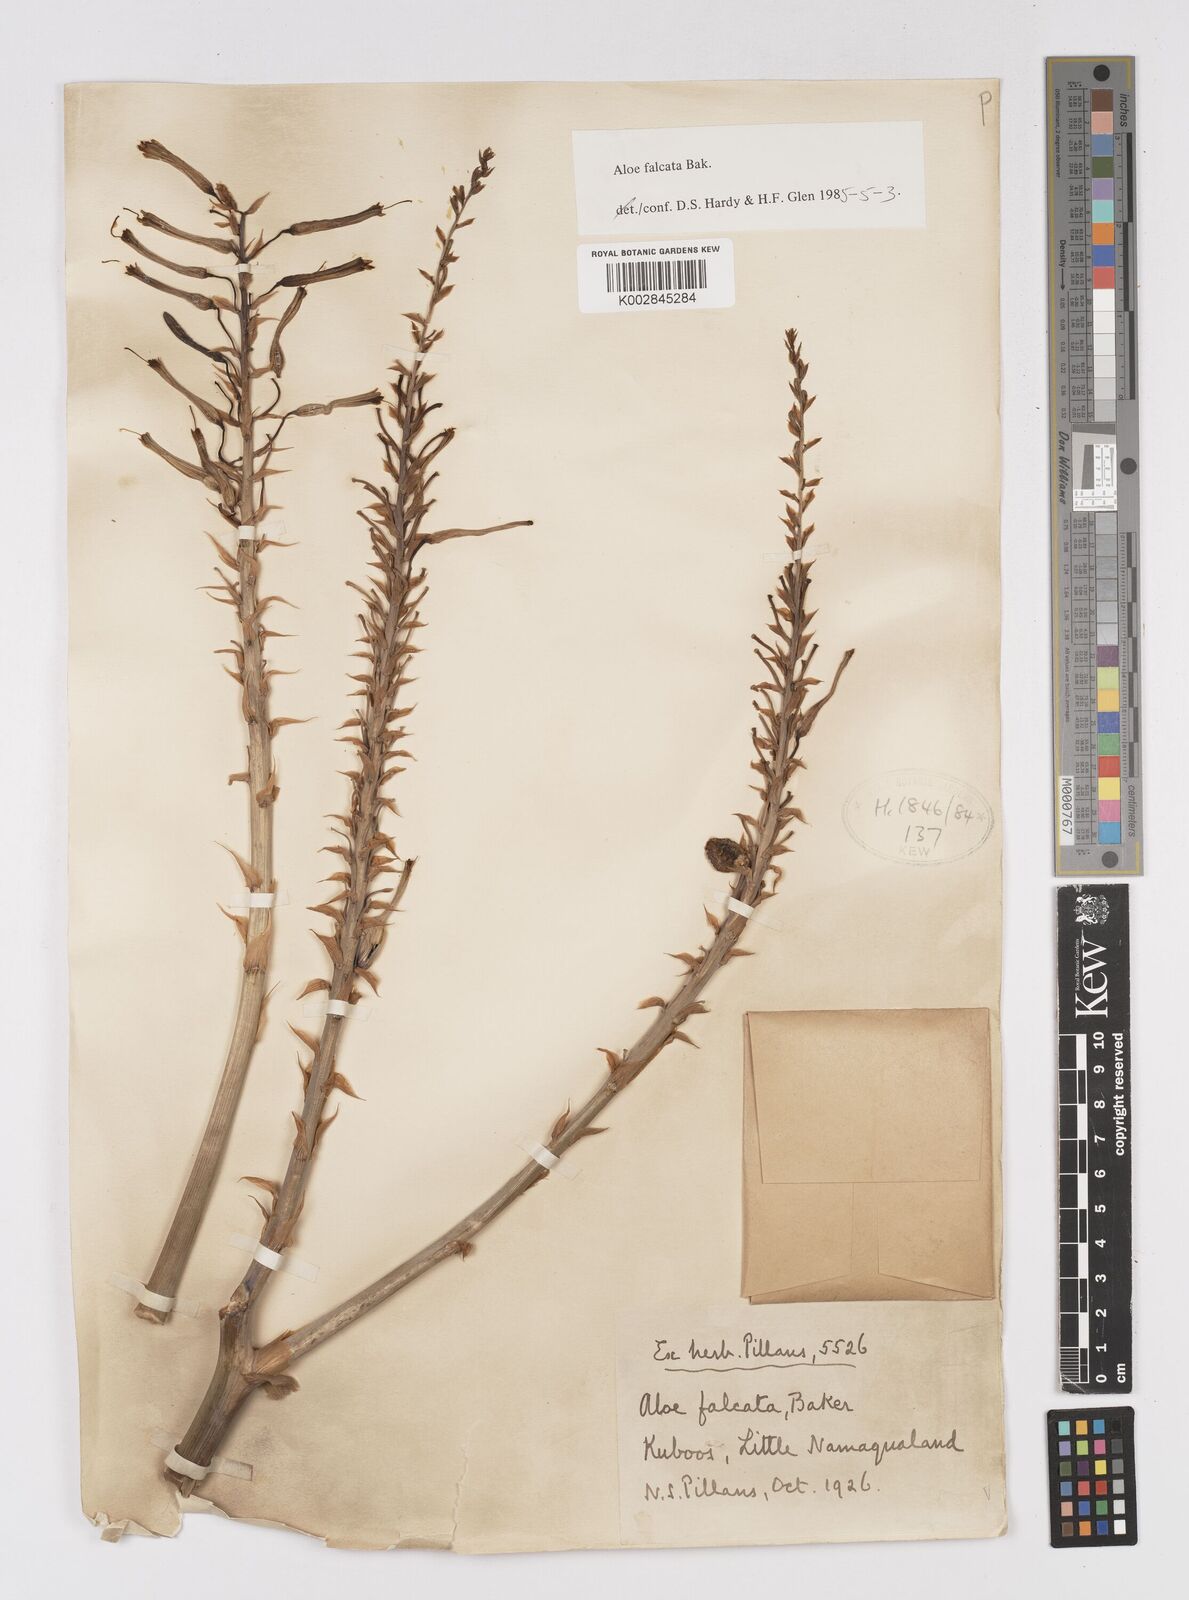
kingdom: Plantae
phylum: Tracheophyta
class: Liliopsida
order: Asparagales
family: Asphodelaceae
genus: Aloe
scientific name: Aloe falcata
